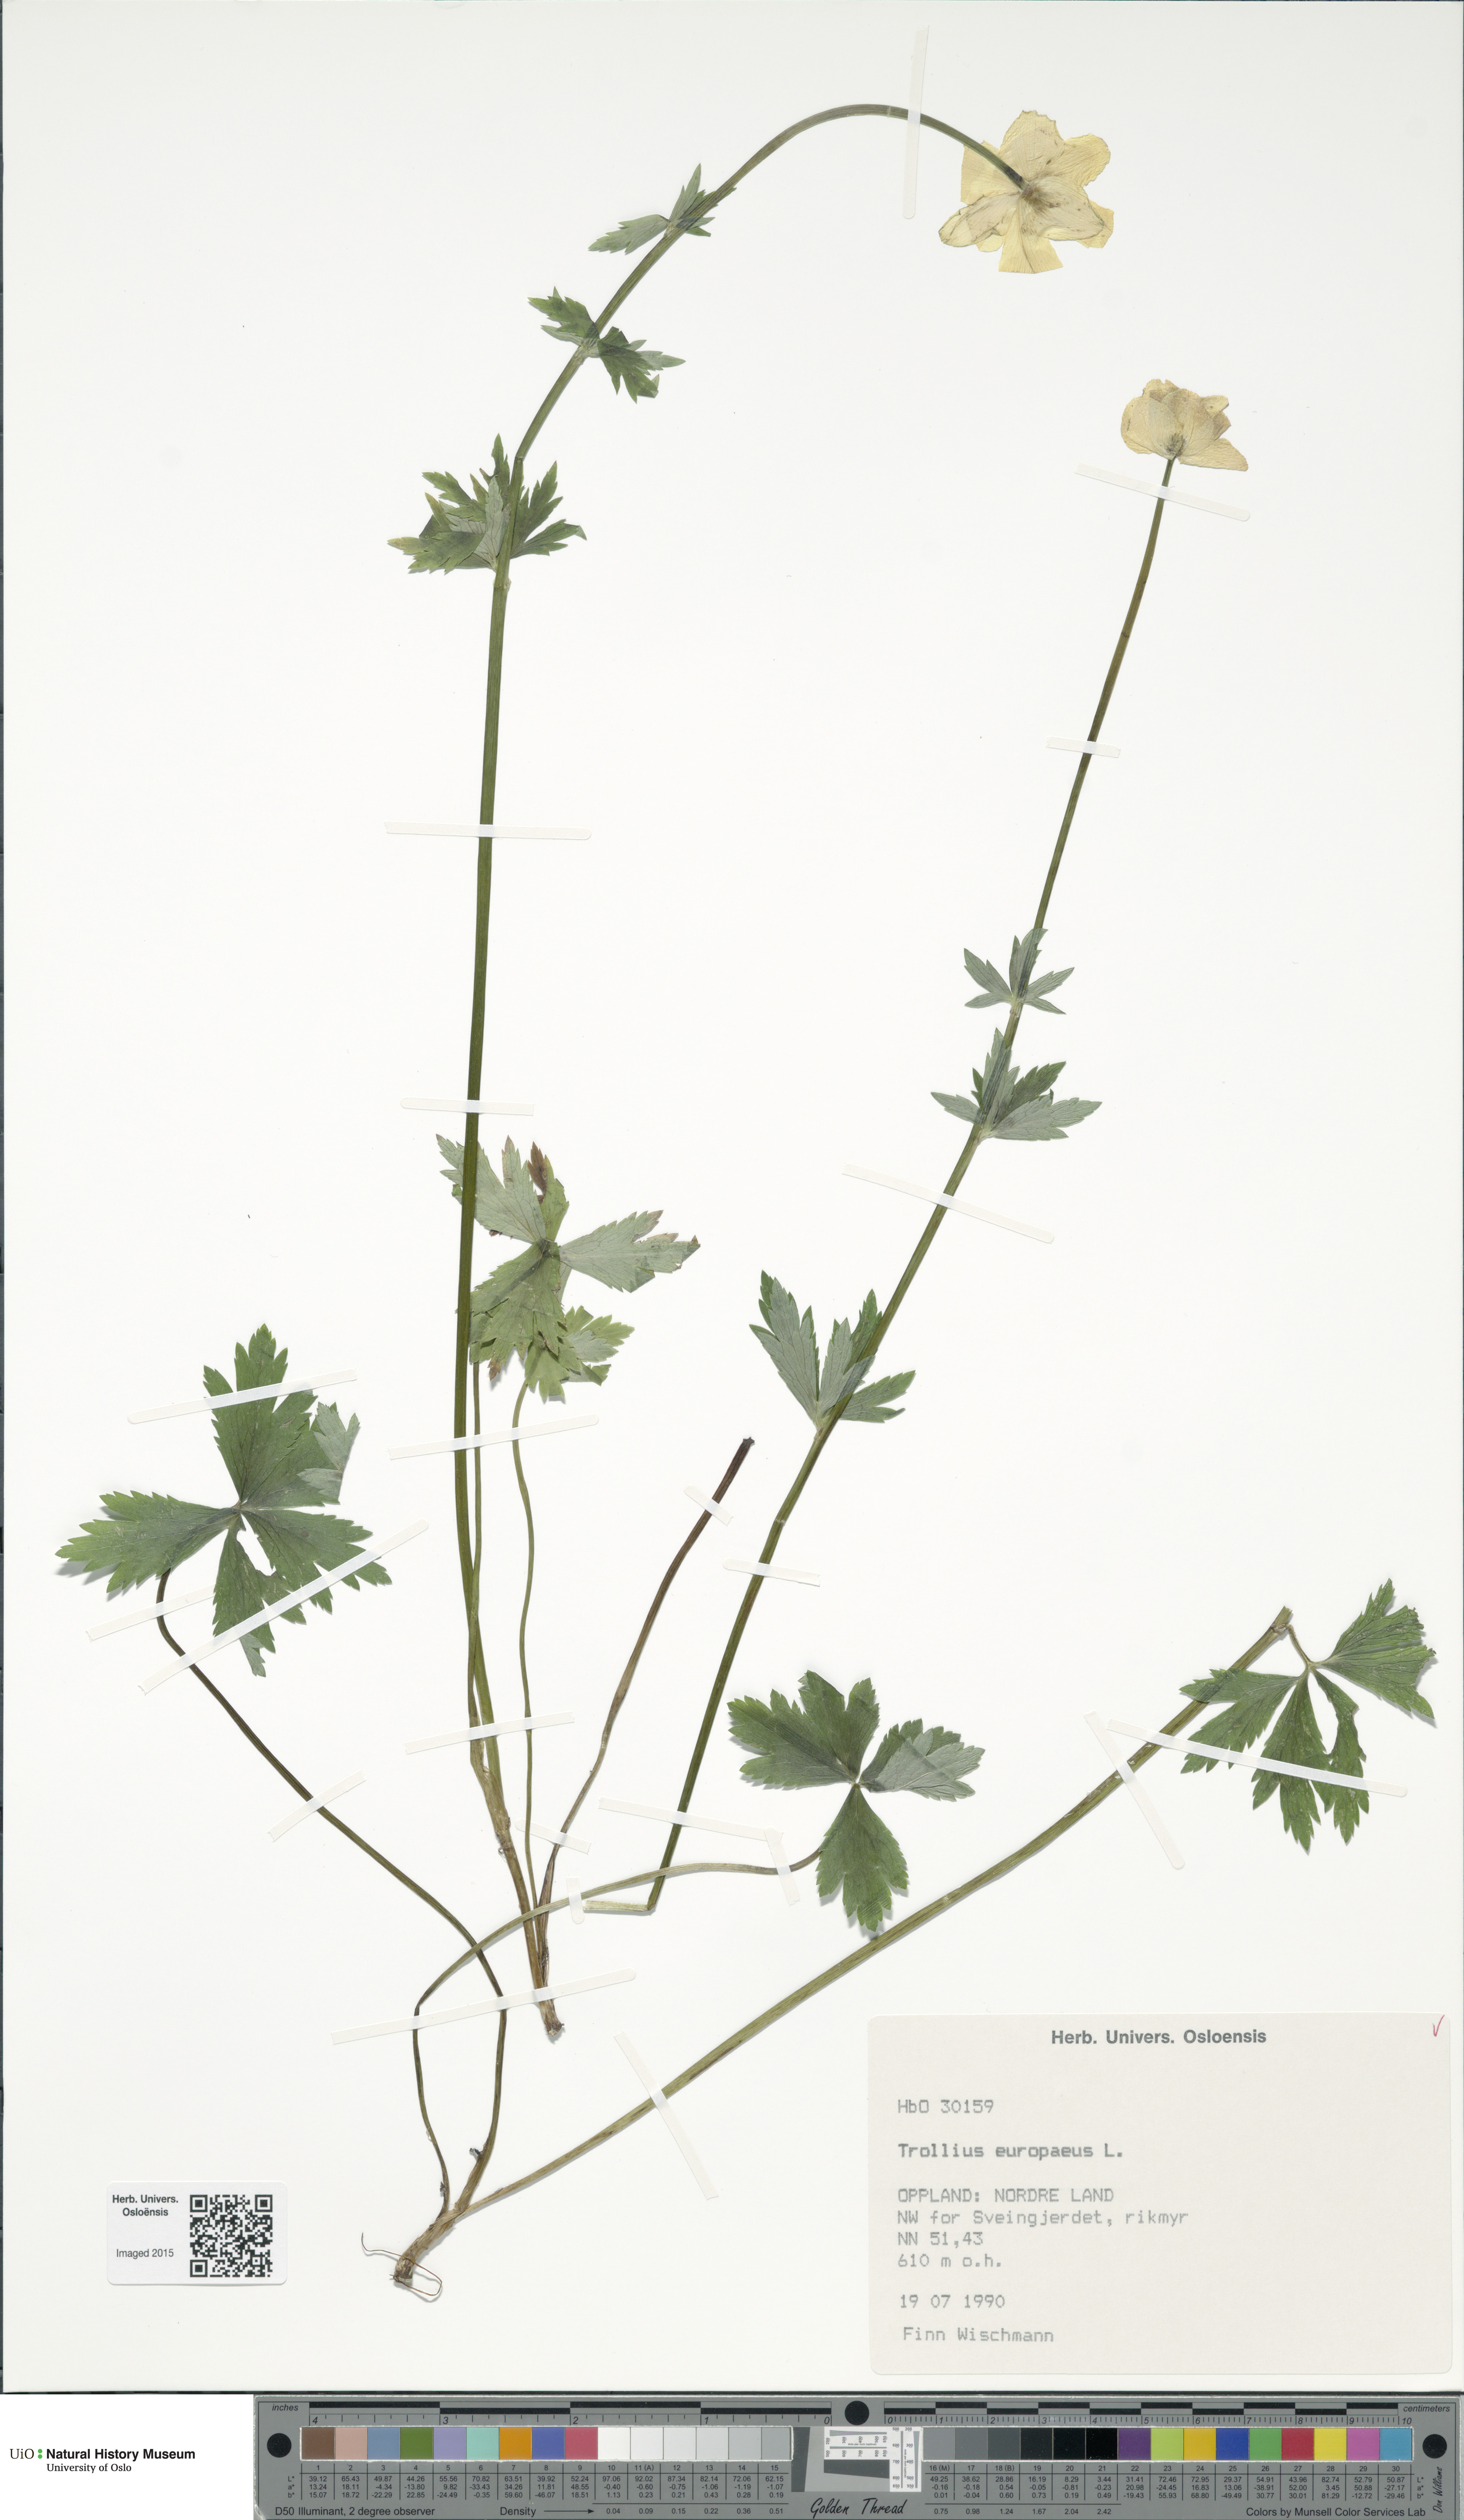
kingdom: Plantae
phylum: Tracheophyta
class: Magnoliopsida
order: Ranunculales
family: Ranunculaceae
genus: Trollius
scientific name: Trollius europaeus
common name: European globeflower
